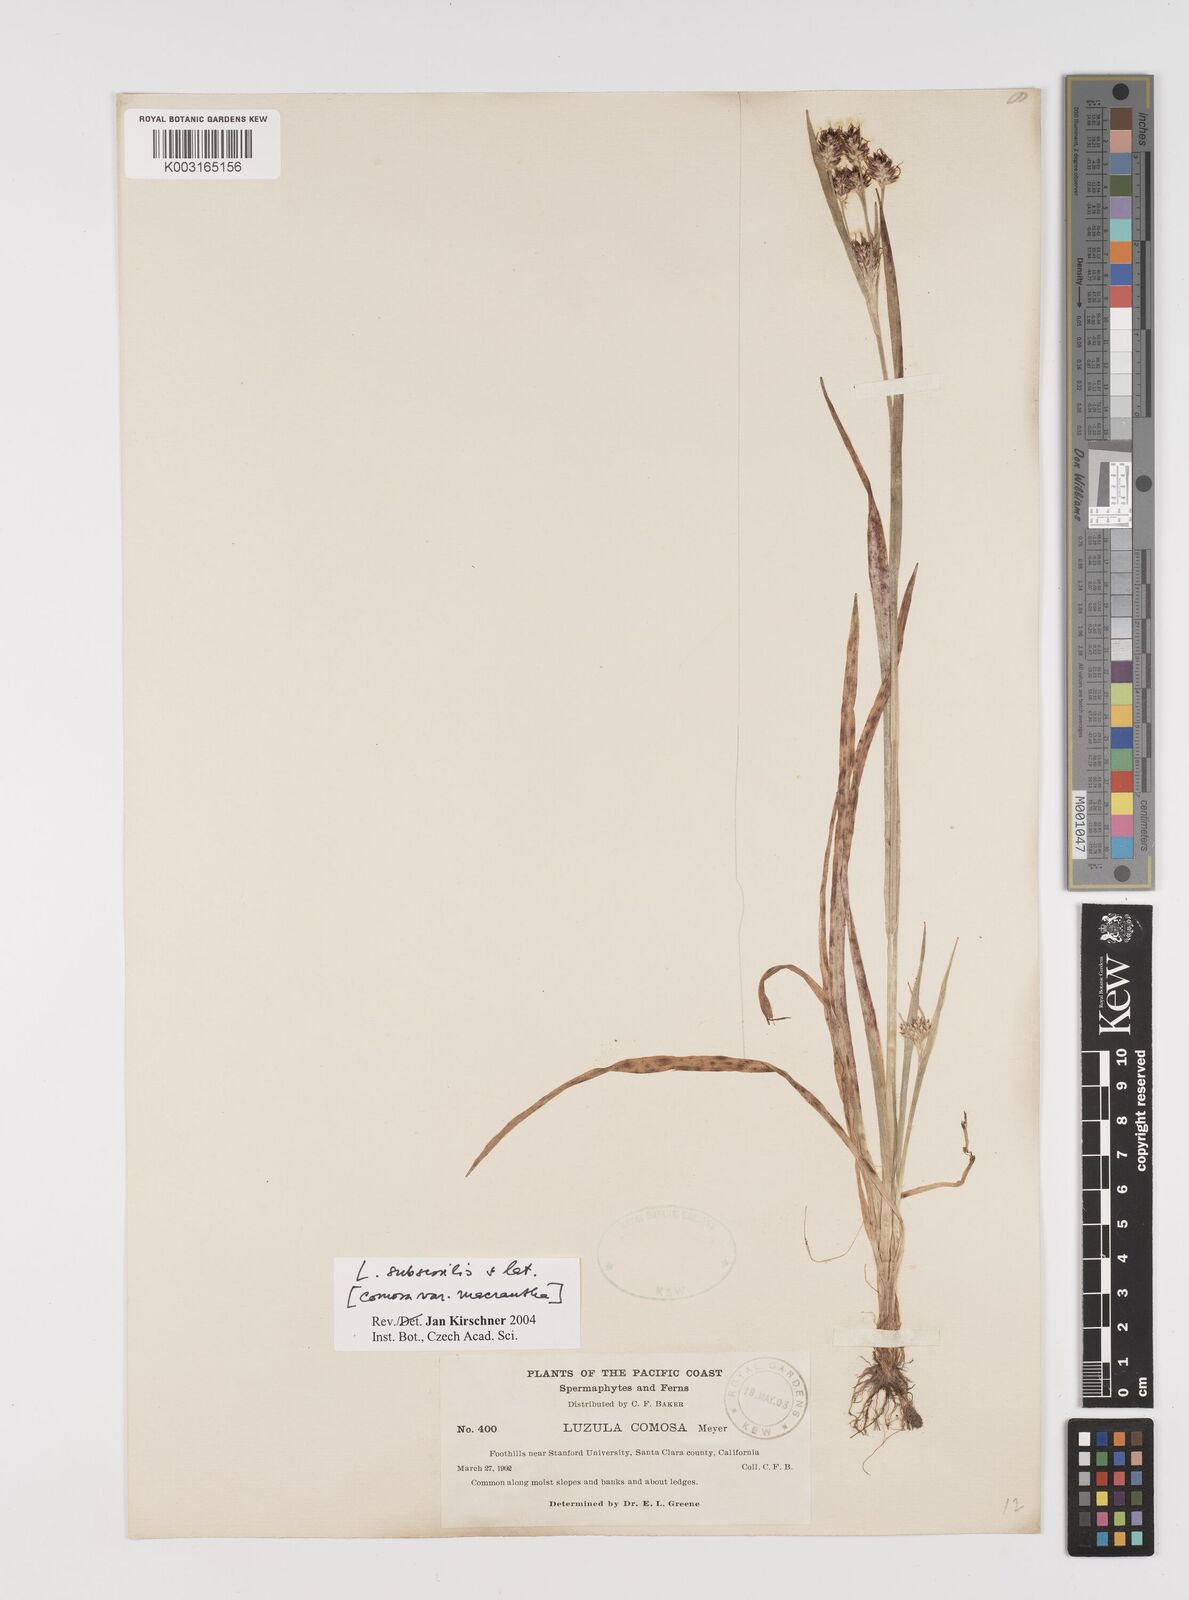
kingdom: Plantae
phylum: Tracheophyta
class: Liliopsida
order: Poales
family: Juncaceae
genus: Luzula
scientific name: Luzula macrantha
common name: Large-anthered woodrush
